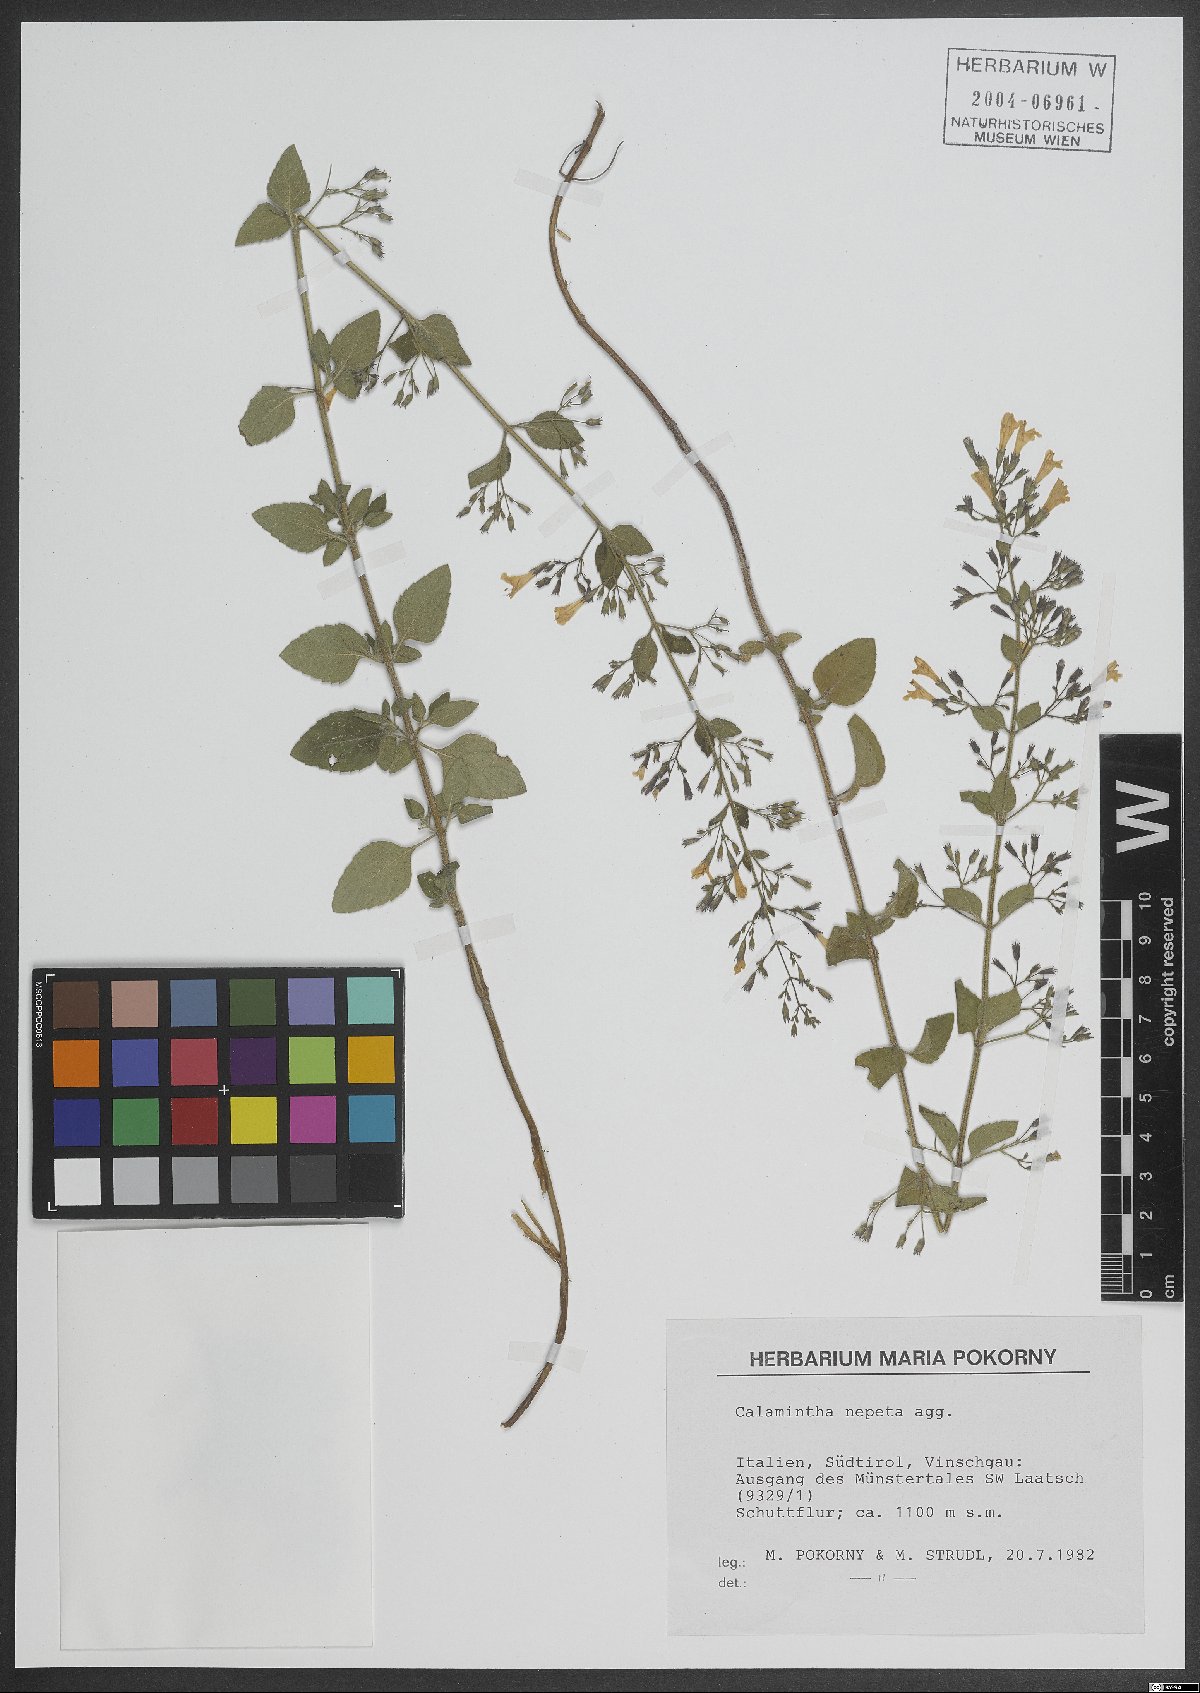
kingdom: Plantae
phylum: Tracheophyta
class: Magnoliopsida
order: Lamiales
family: Lamiaceae
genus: Clinopodium
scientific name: Clinopodium nepeta
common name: Lesser calamint
